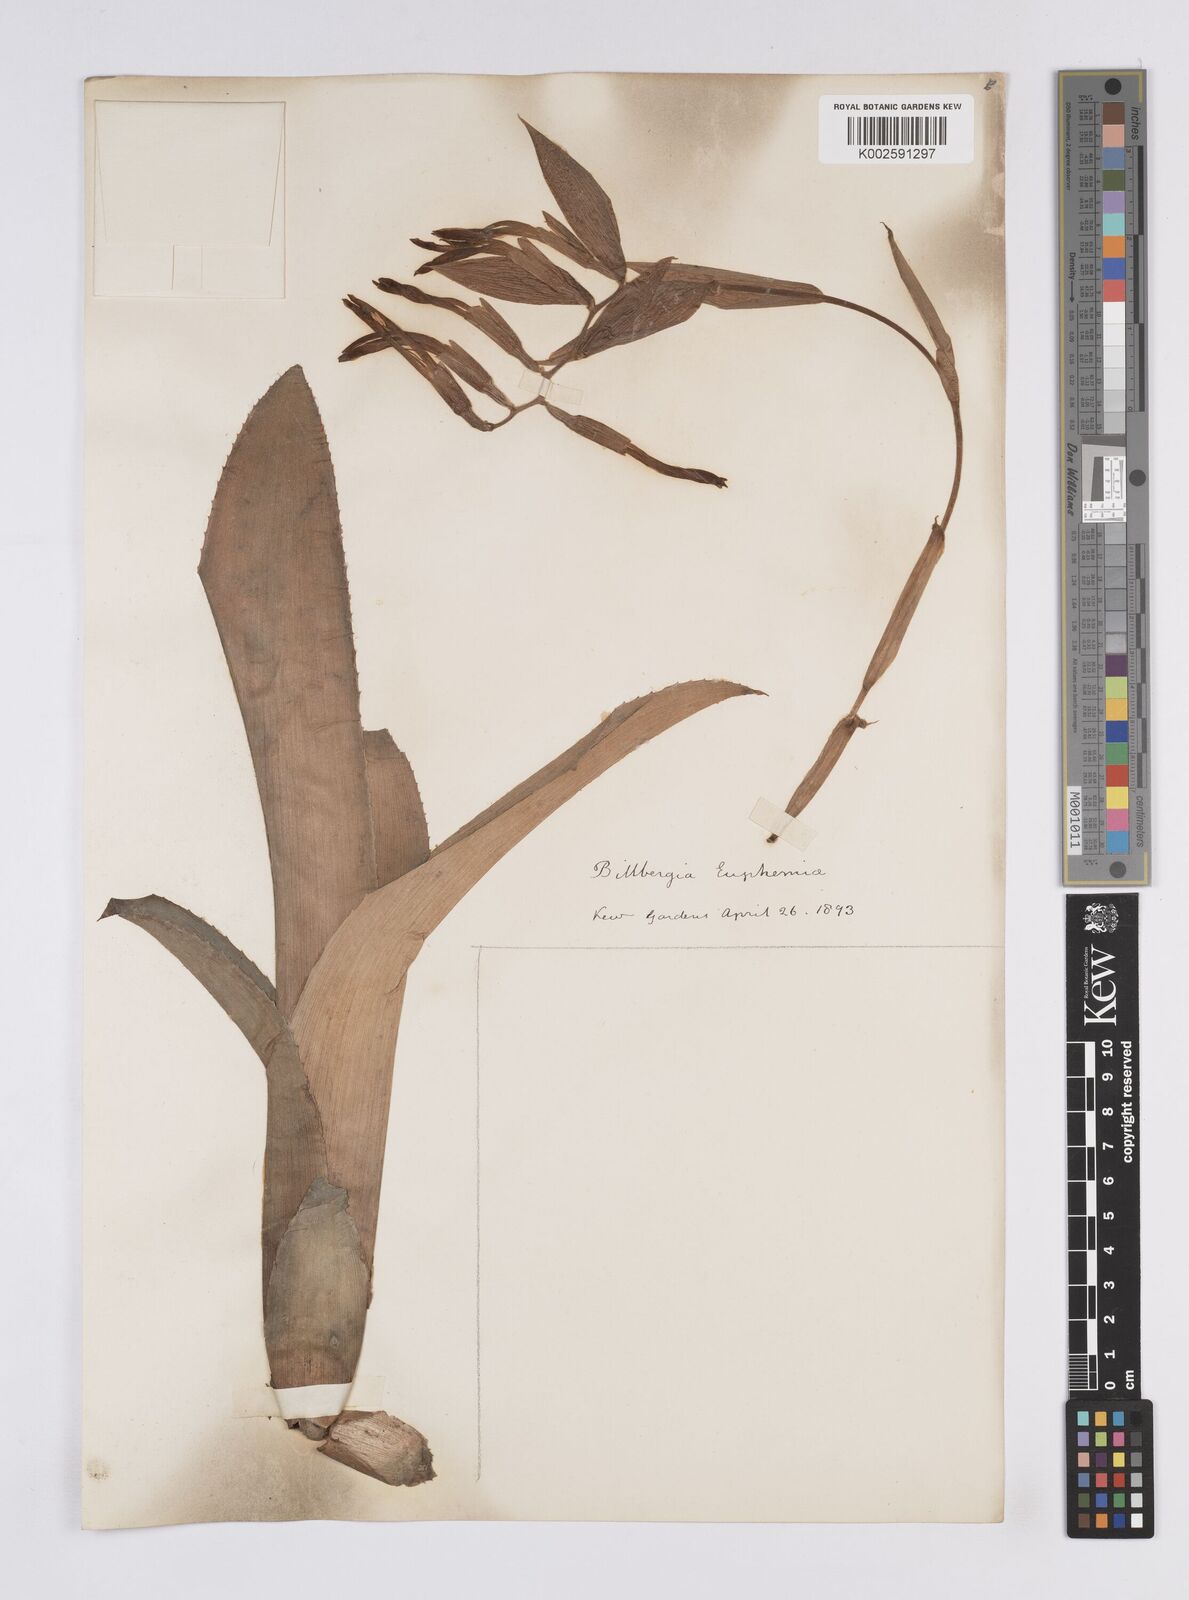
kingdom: Plantae
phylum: Tracheophyta
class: Liliopsida
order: Poales
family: Bromeliaceae
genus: Billbergia
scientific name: Billbergia euphemiae
